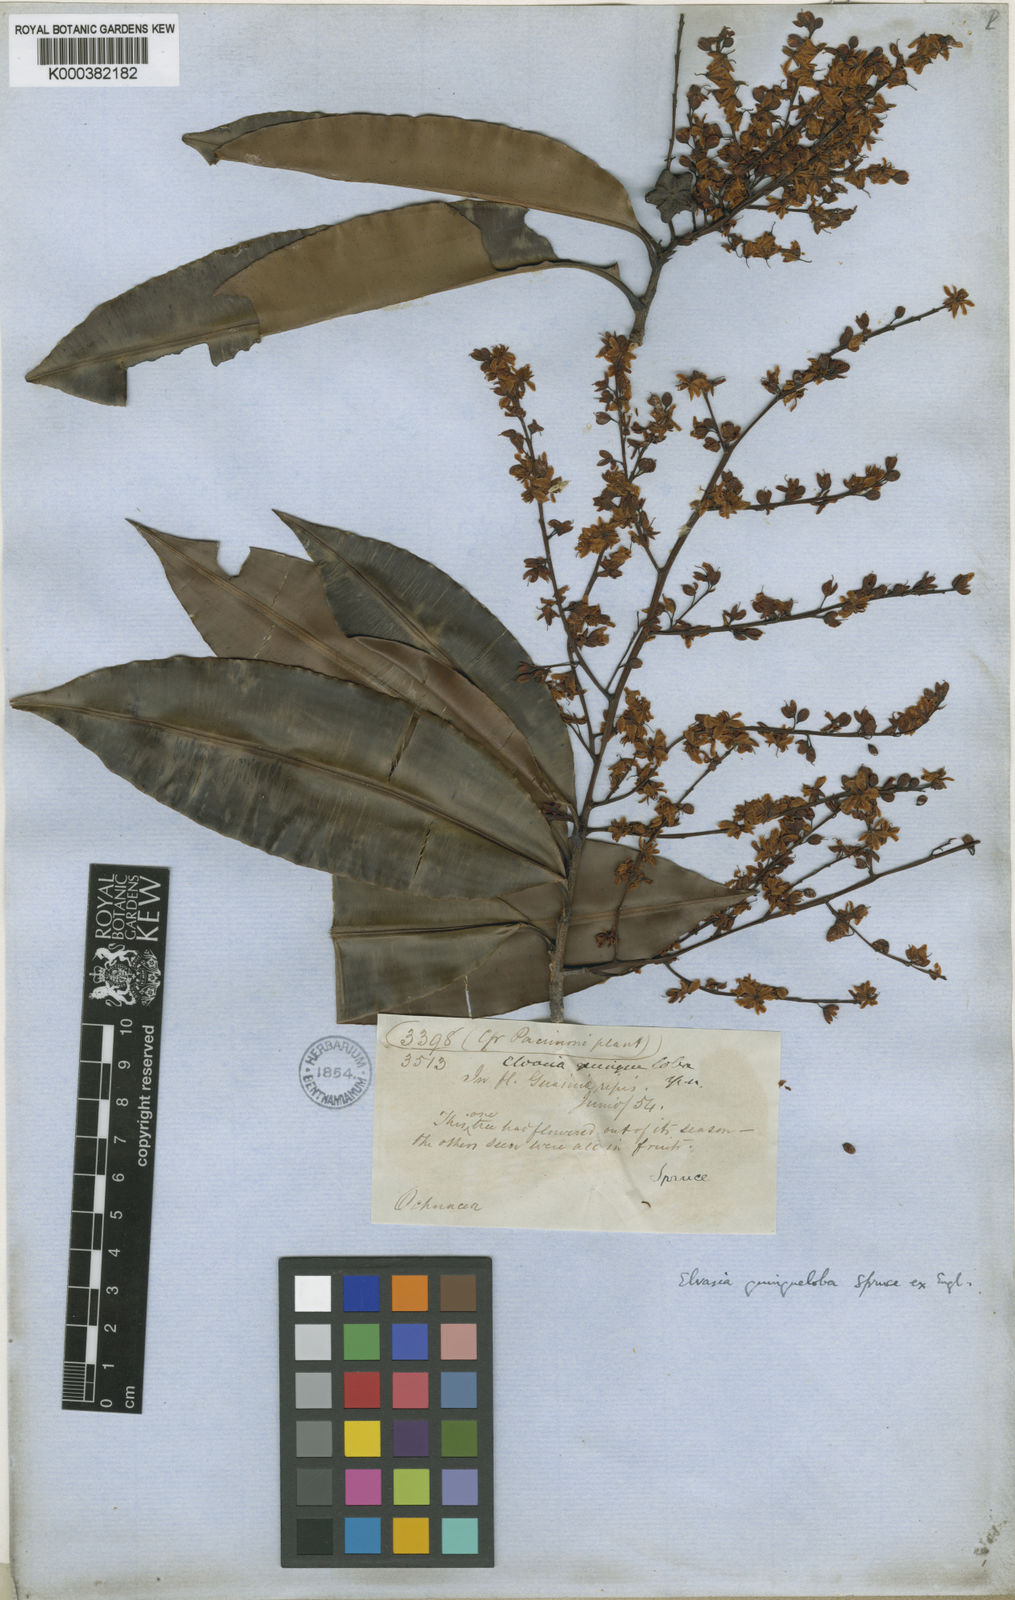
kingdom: Plantae
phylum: Tracheophyta
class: Magnoliopsida
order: Malpighiales
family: Ochnaceae
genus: Elvasia
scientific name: Elvasia quinqueloba
